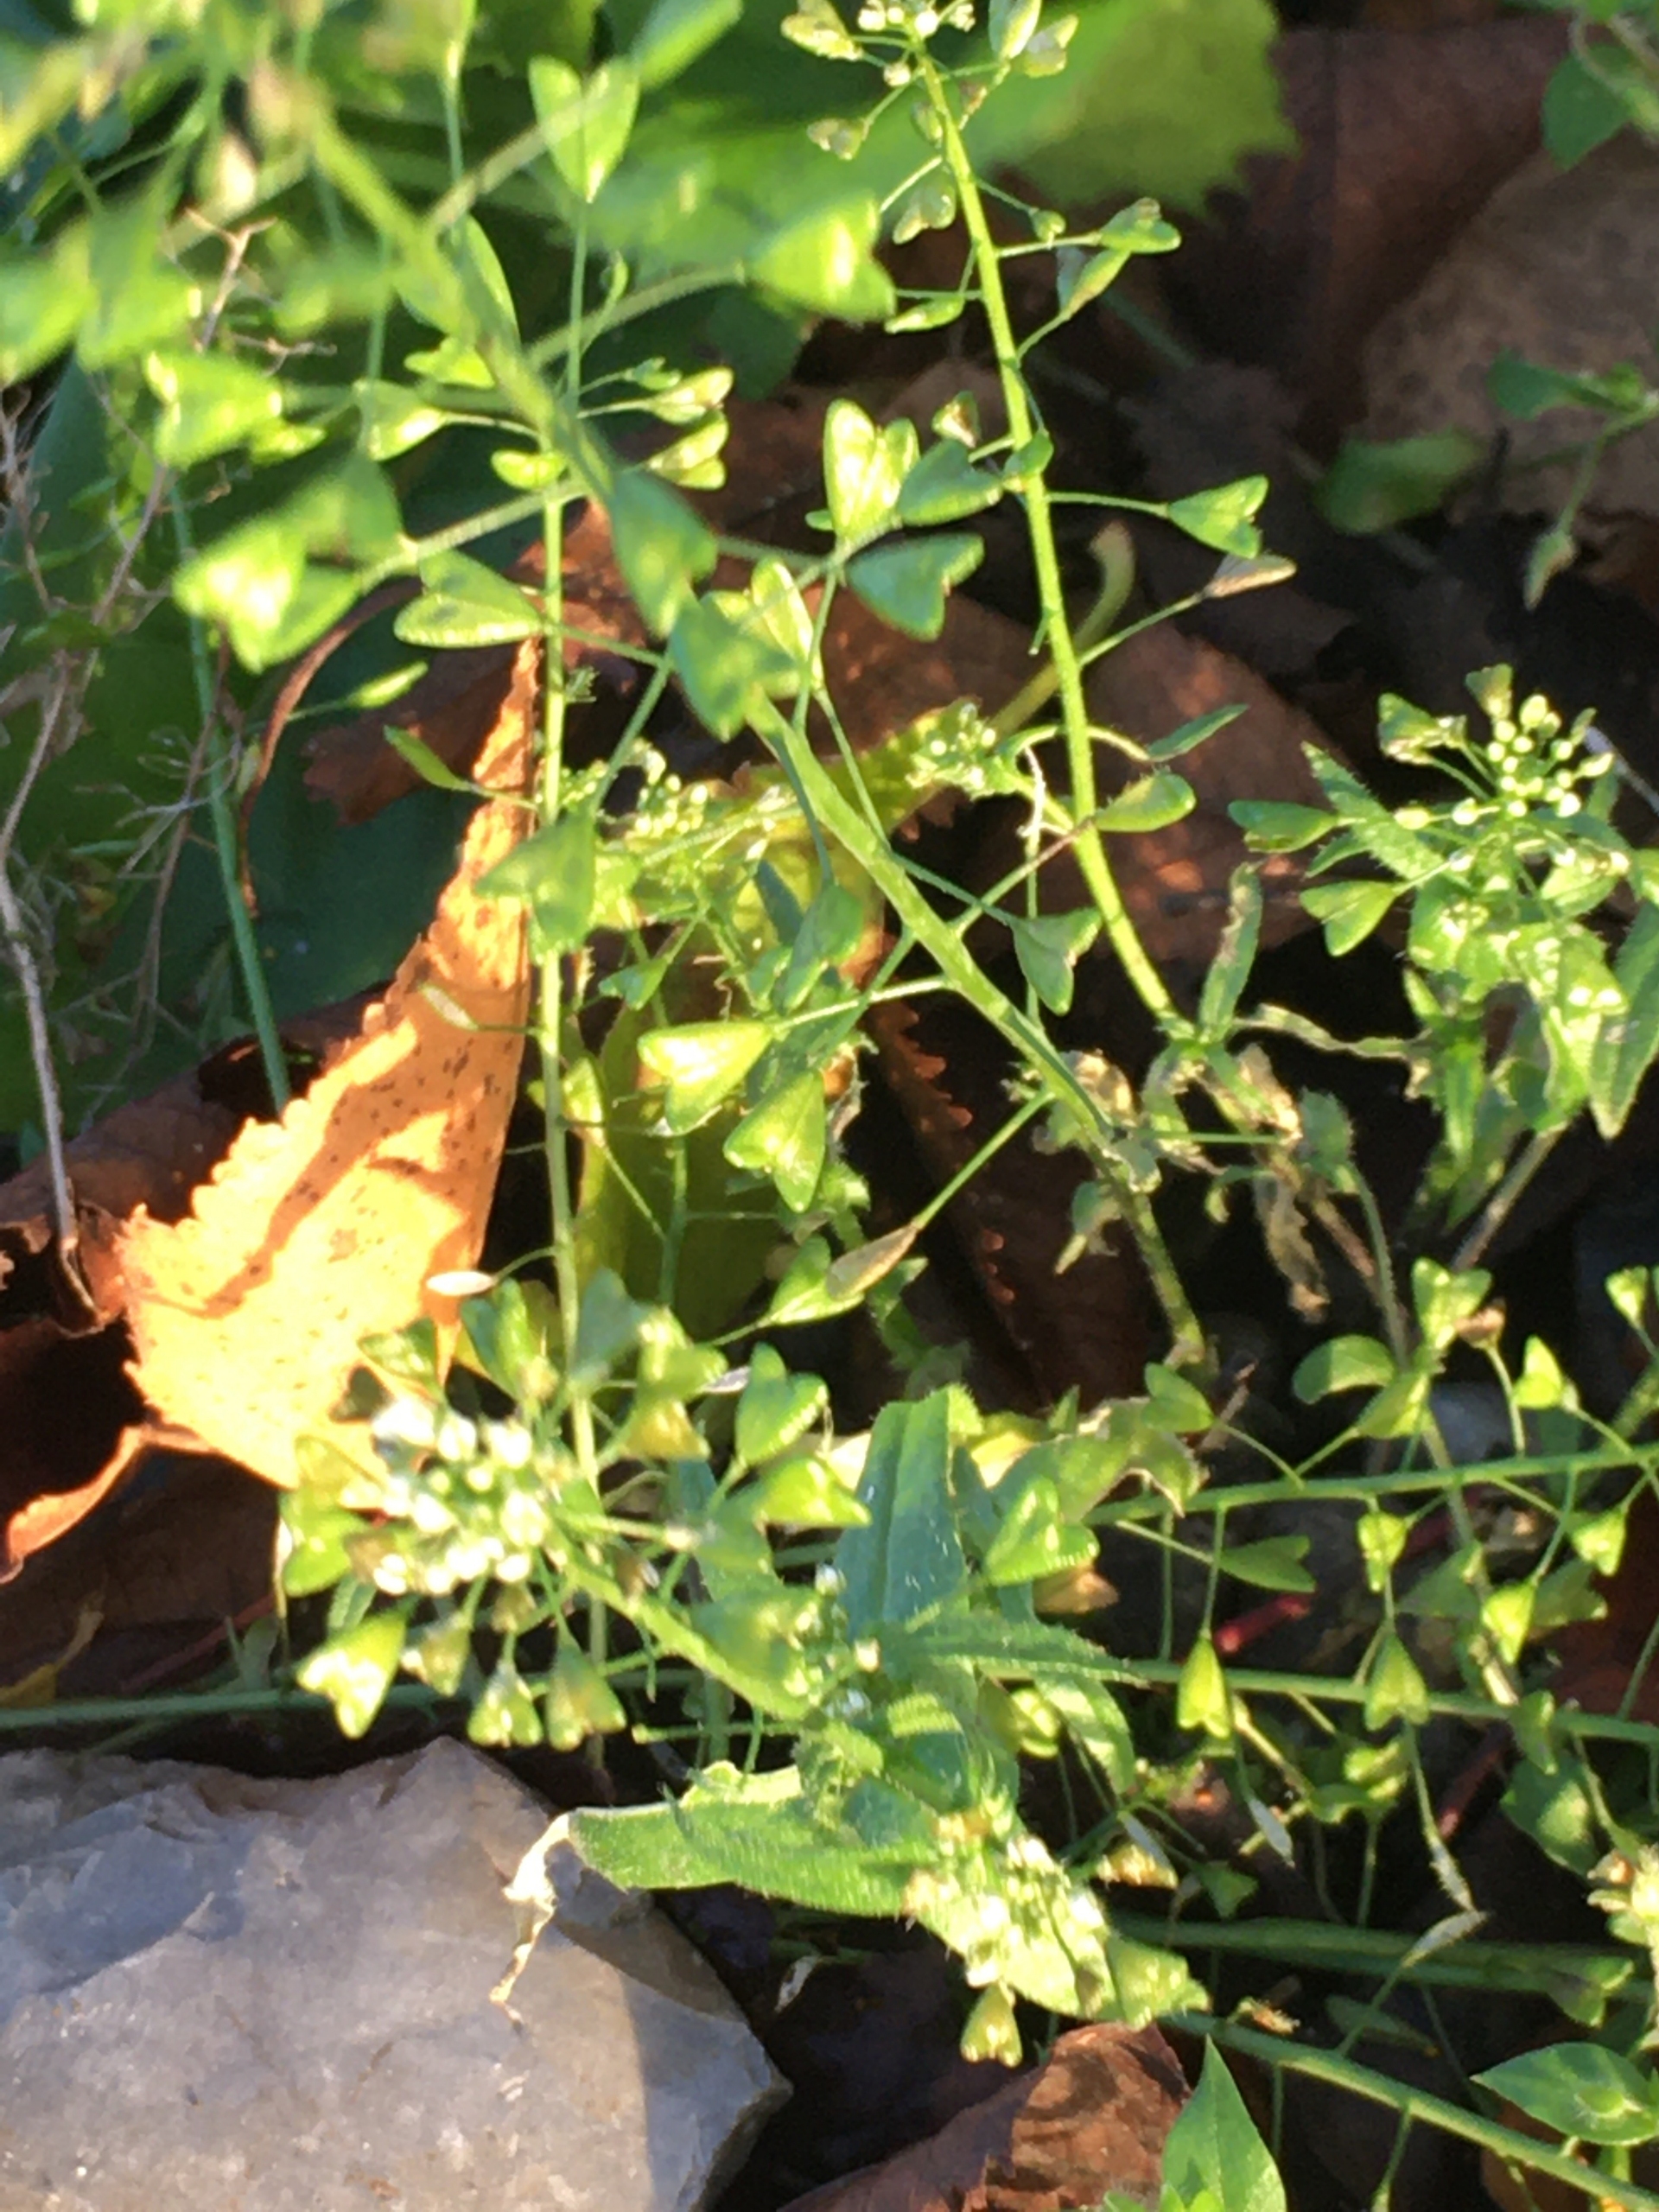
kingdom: Plantae
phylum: Tracheophyta
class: Magnoliopsida
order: Brassicales
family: Brassicaceae
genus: Capsella
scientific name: Capsella bursa-pastoris
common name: Hyrdetaske
